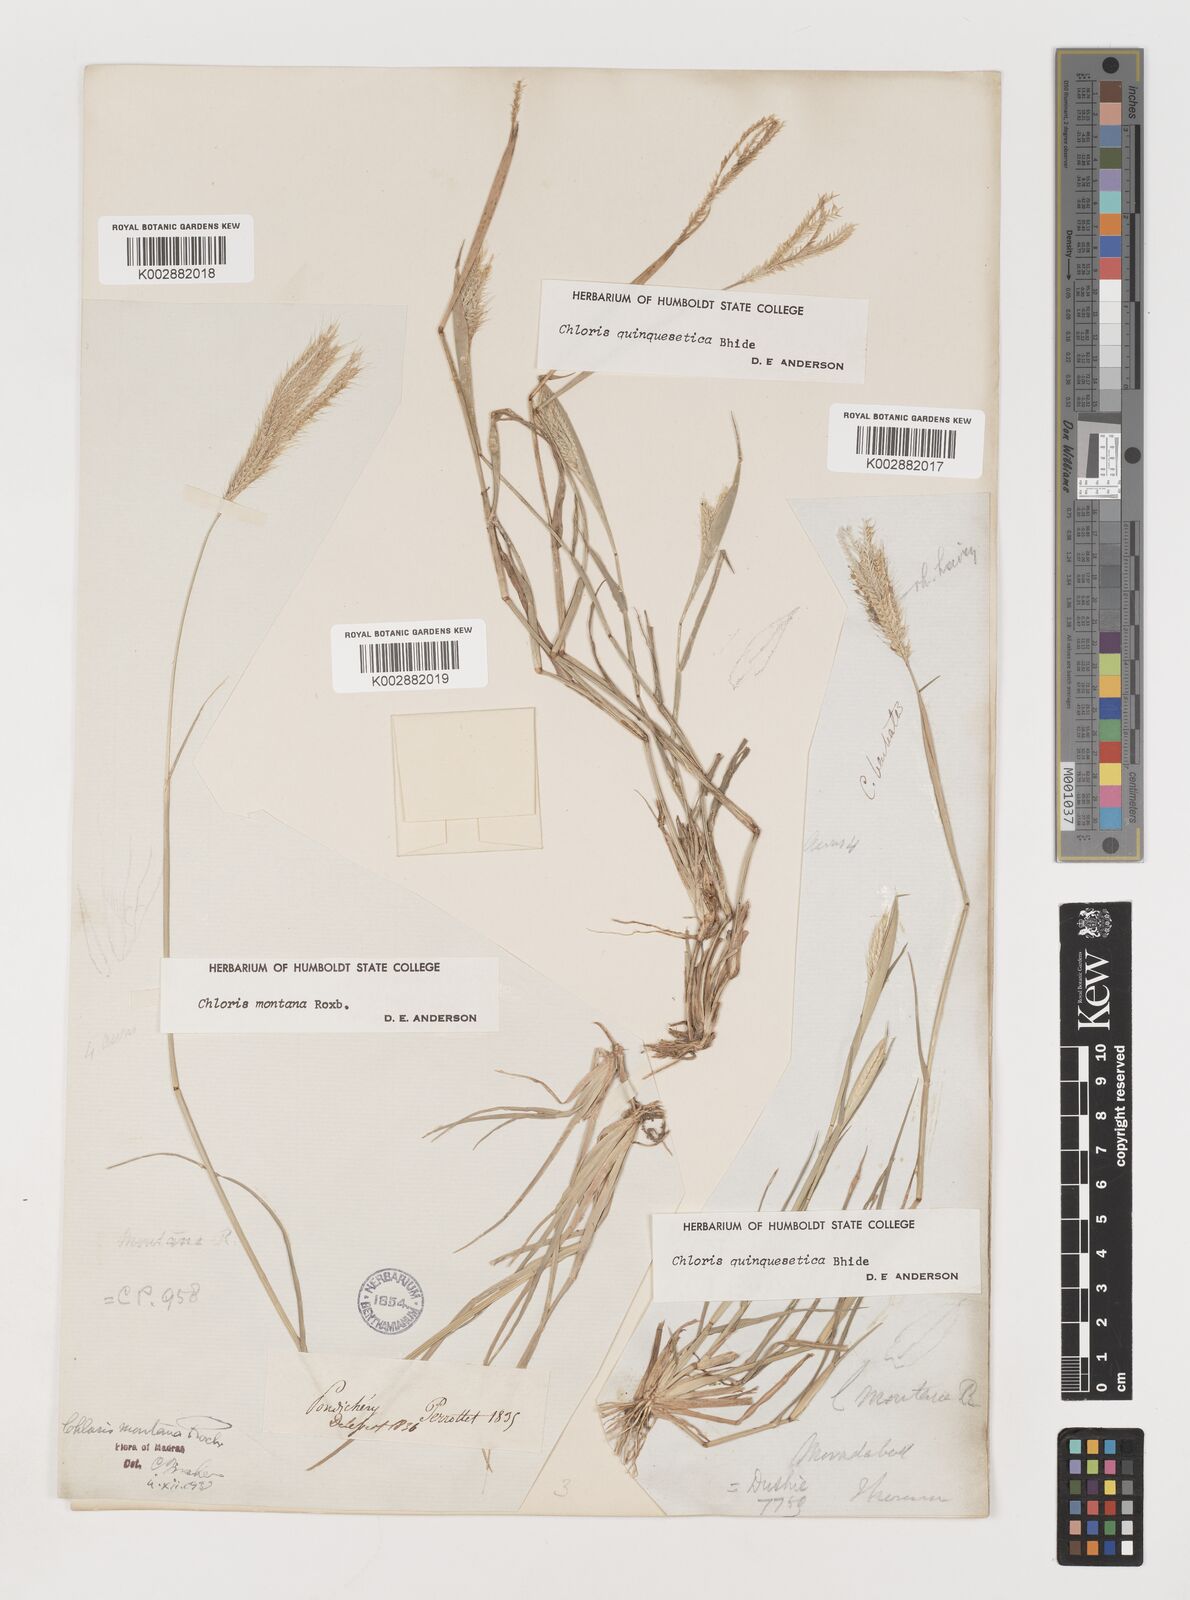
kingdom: Plantae
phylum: Tracheophyta
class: Liliopsida
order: Poales
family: Poaceae
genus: Chloris
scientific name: Chloris montana
